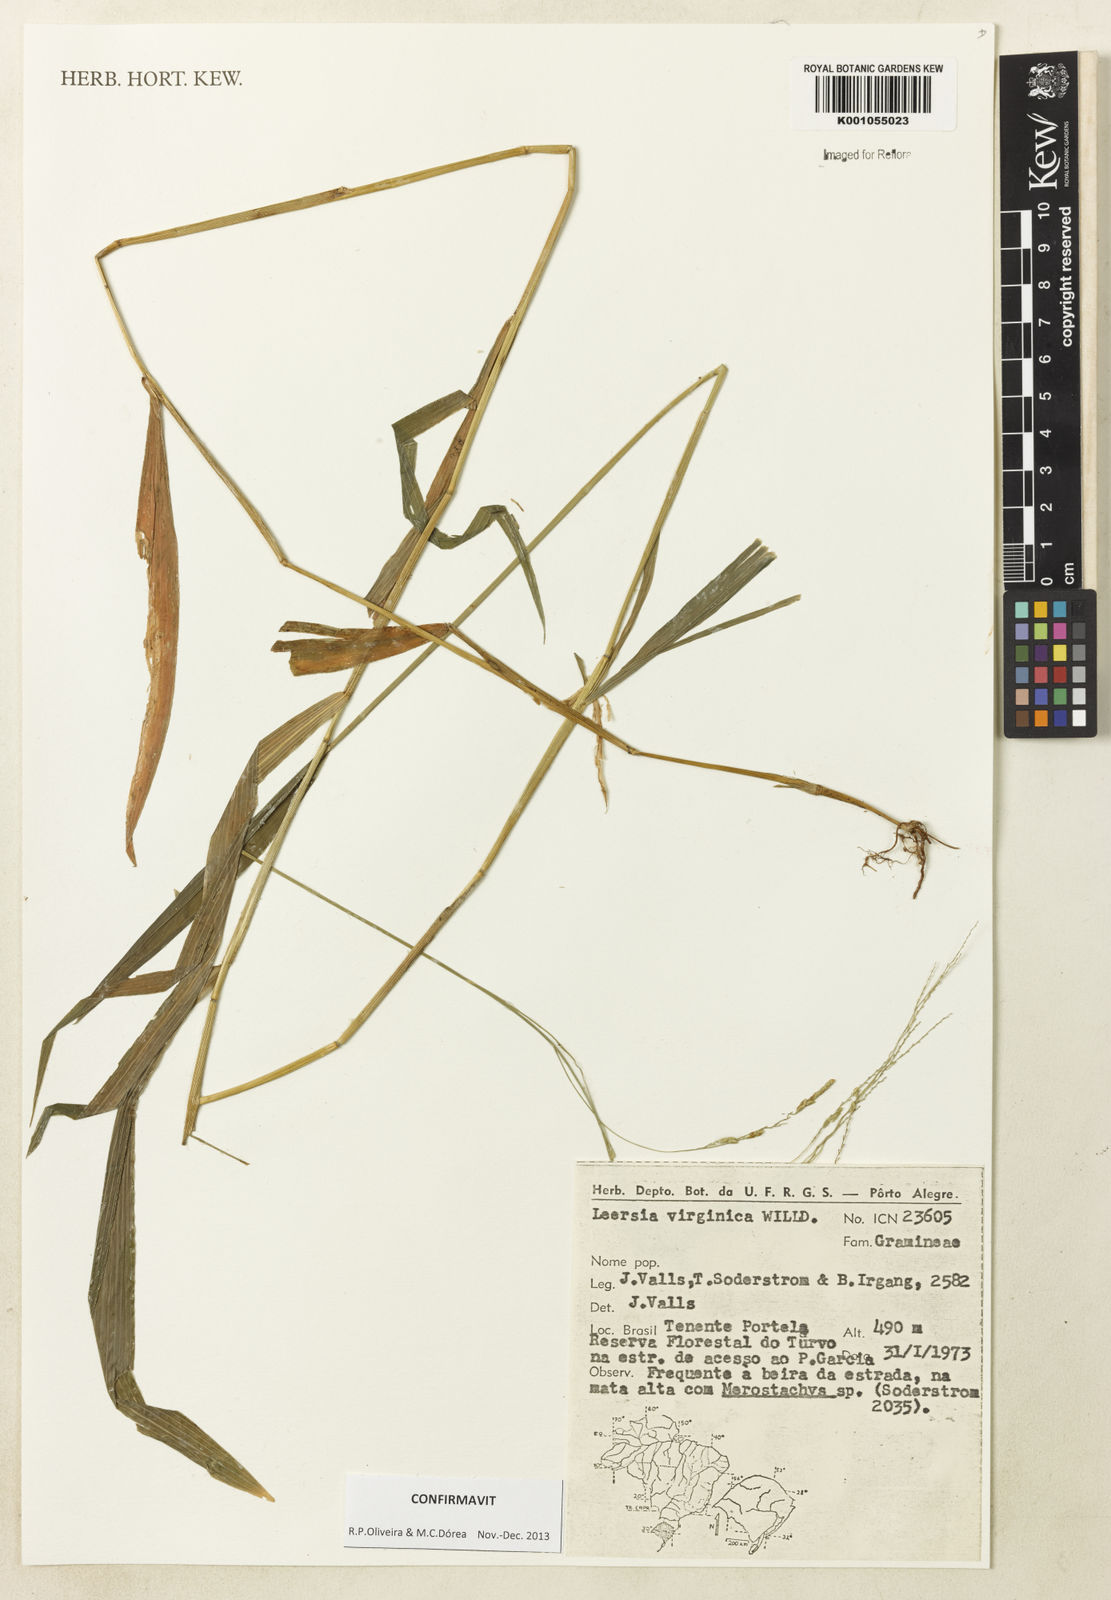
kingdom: Plantae
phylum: Tracheophyta
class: Liliopsida
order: Poales
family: Poaceae
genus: Leersia
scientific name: Leersia virginica
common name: White cutgrass
